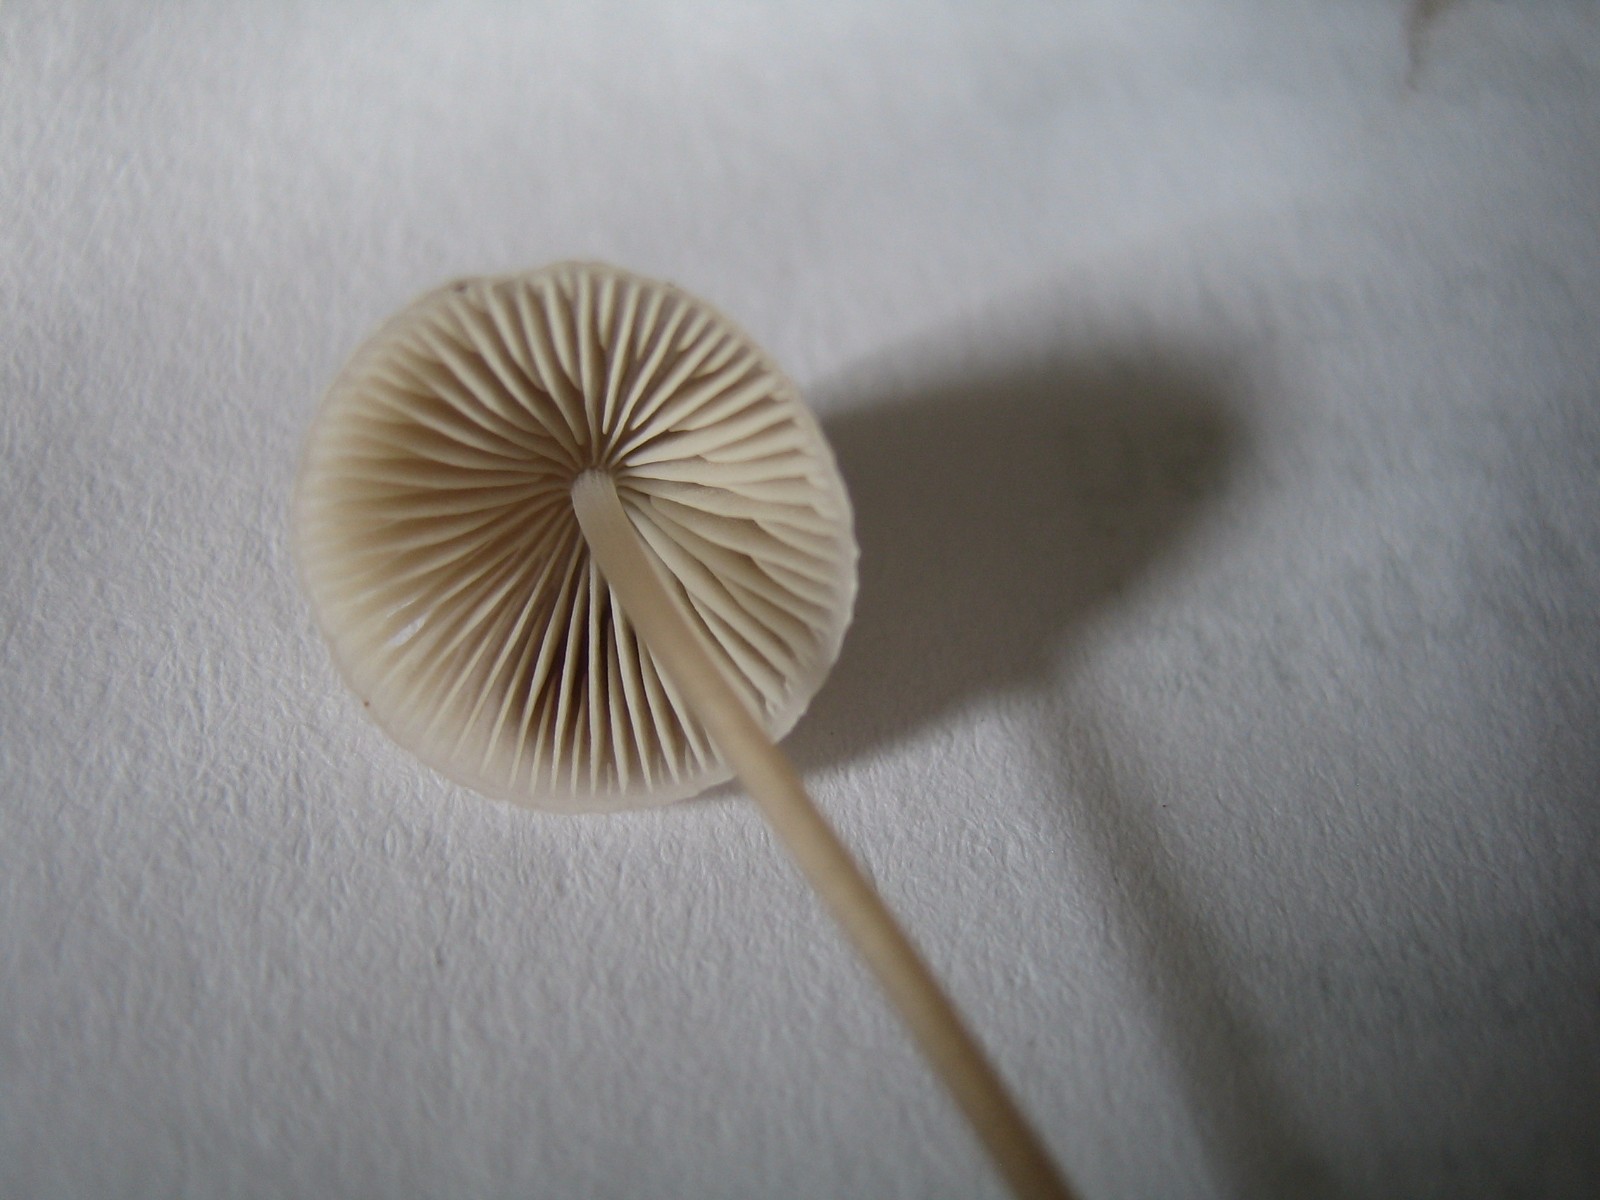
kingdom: Fungi
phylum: Basidiomycota
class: Agaricomycetes
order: Agaricales
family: Mycenaceae
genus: Mycena
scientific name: Mycena
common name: huesvamp
